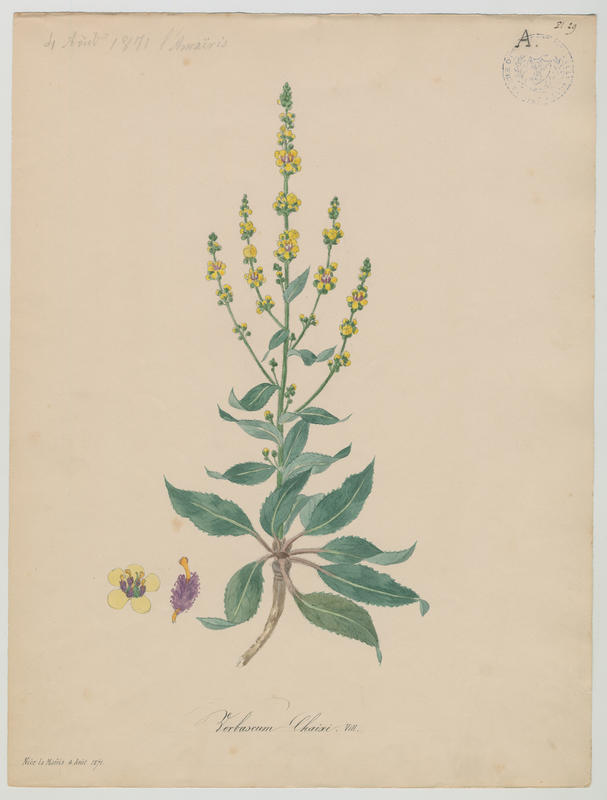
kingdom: Plantae
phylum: Tracheophyta
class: Magnoliopsida
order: Lamiales
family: Scrophulariaceae
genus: Verbascum
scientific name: Verbascum chaixii
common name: Nettle-leaved mullein
